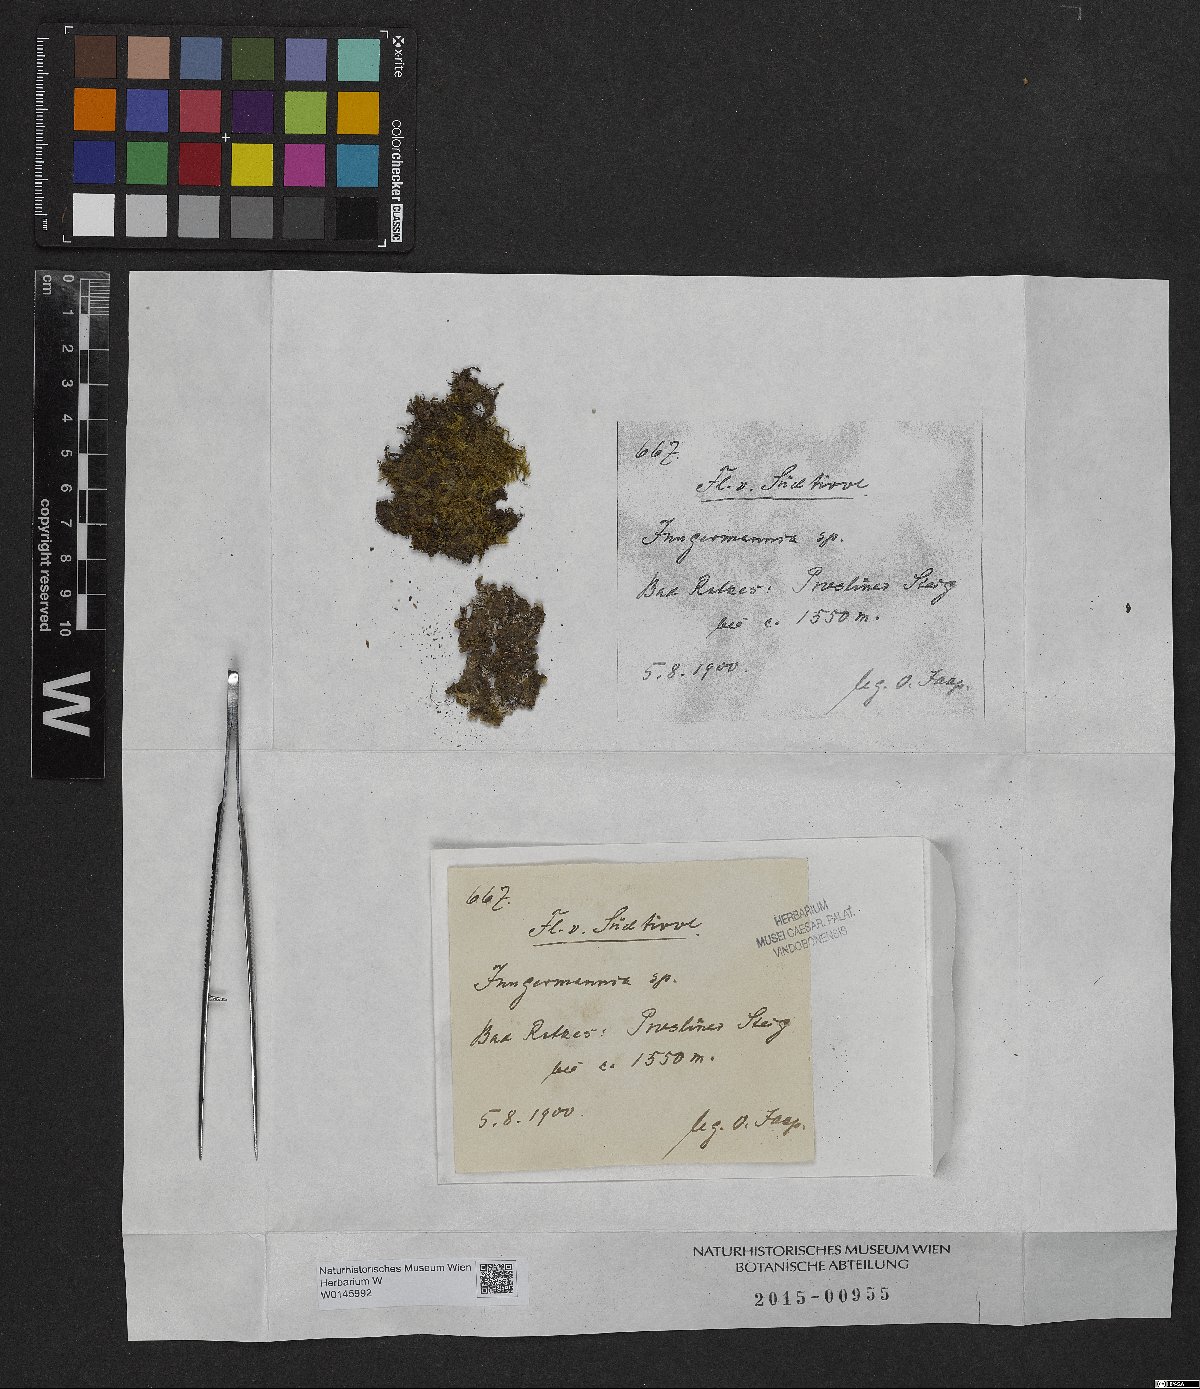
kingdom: Plantae
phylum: Marchantiophyta
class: Jungermanniopsida
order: Jungermanniales
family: Jungermanniaceae
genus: Jungermannia
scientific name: Jungermannia
